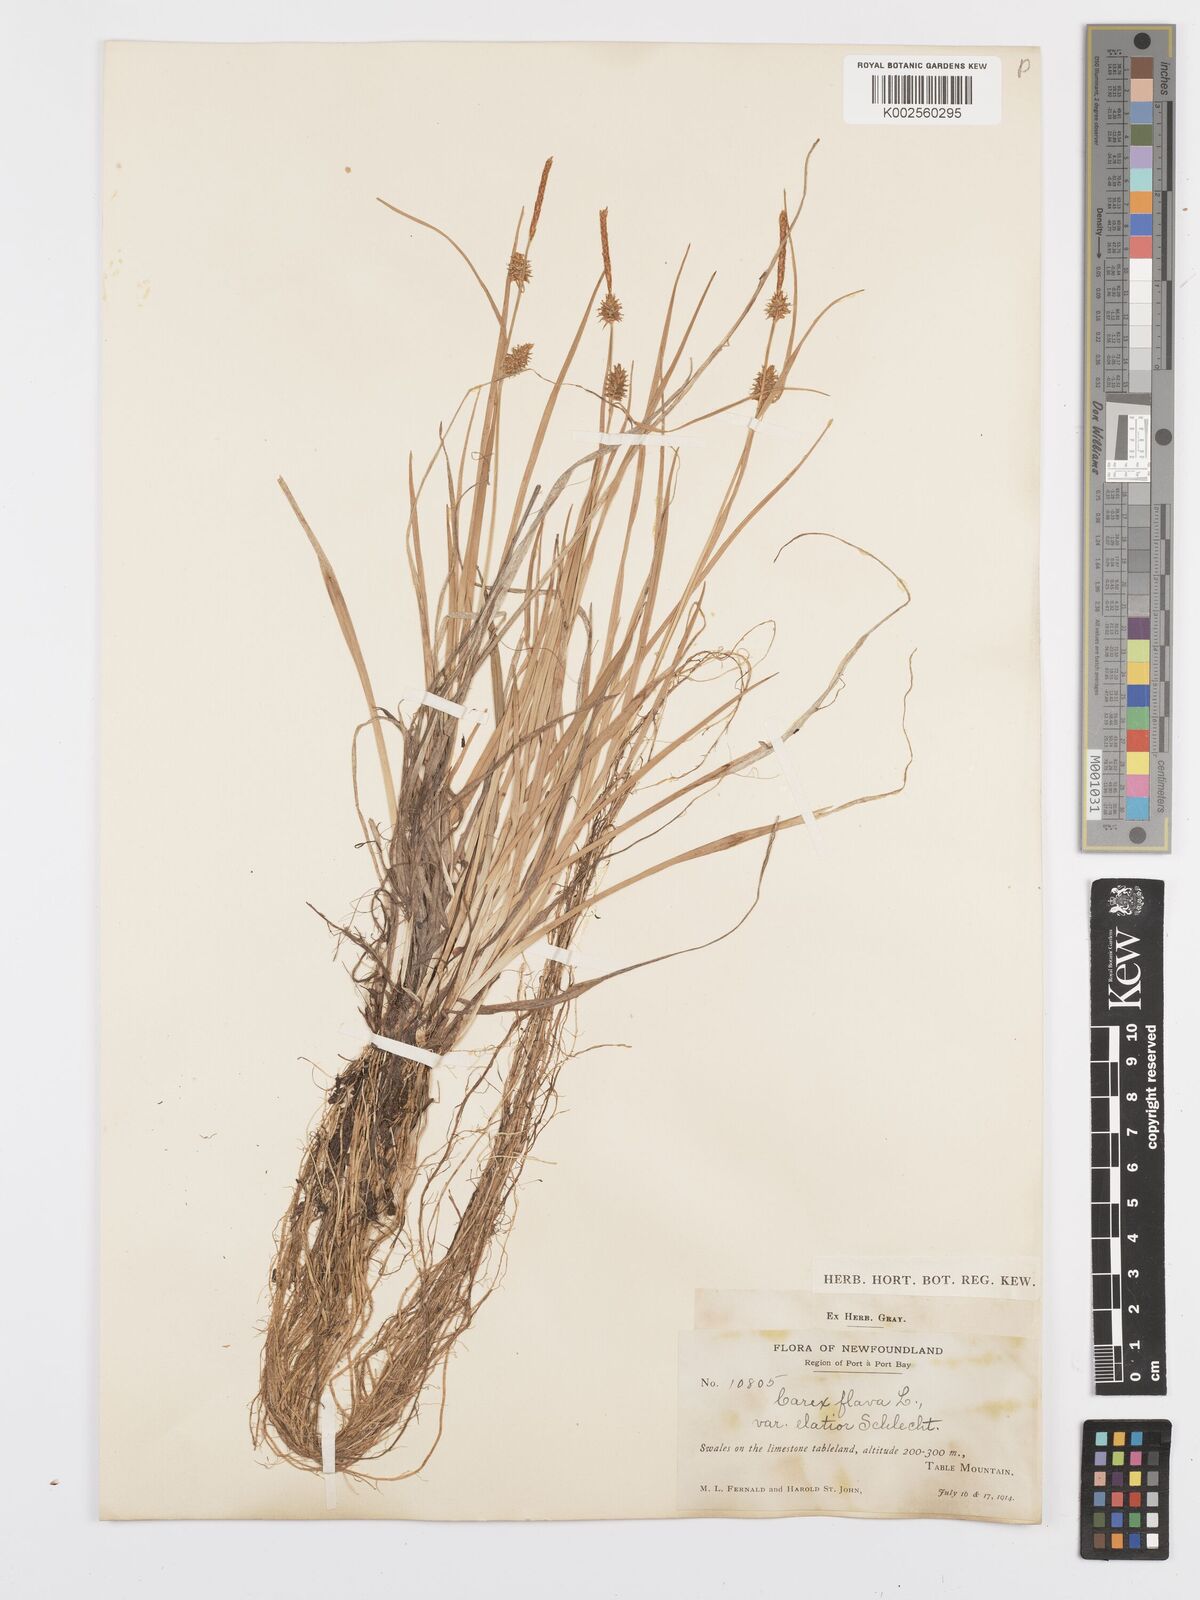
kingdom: Plantae
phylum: Tracheophyta
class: Liliopsida
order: Poales
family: Cyperaceae
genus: Carex
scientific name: Carex flava
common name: Large yellow-sedge
